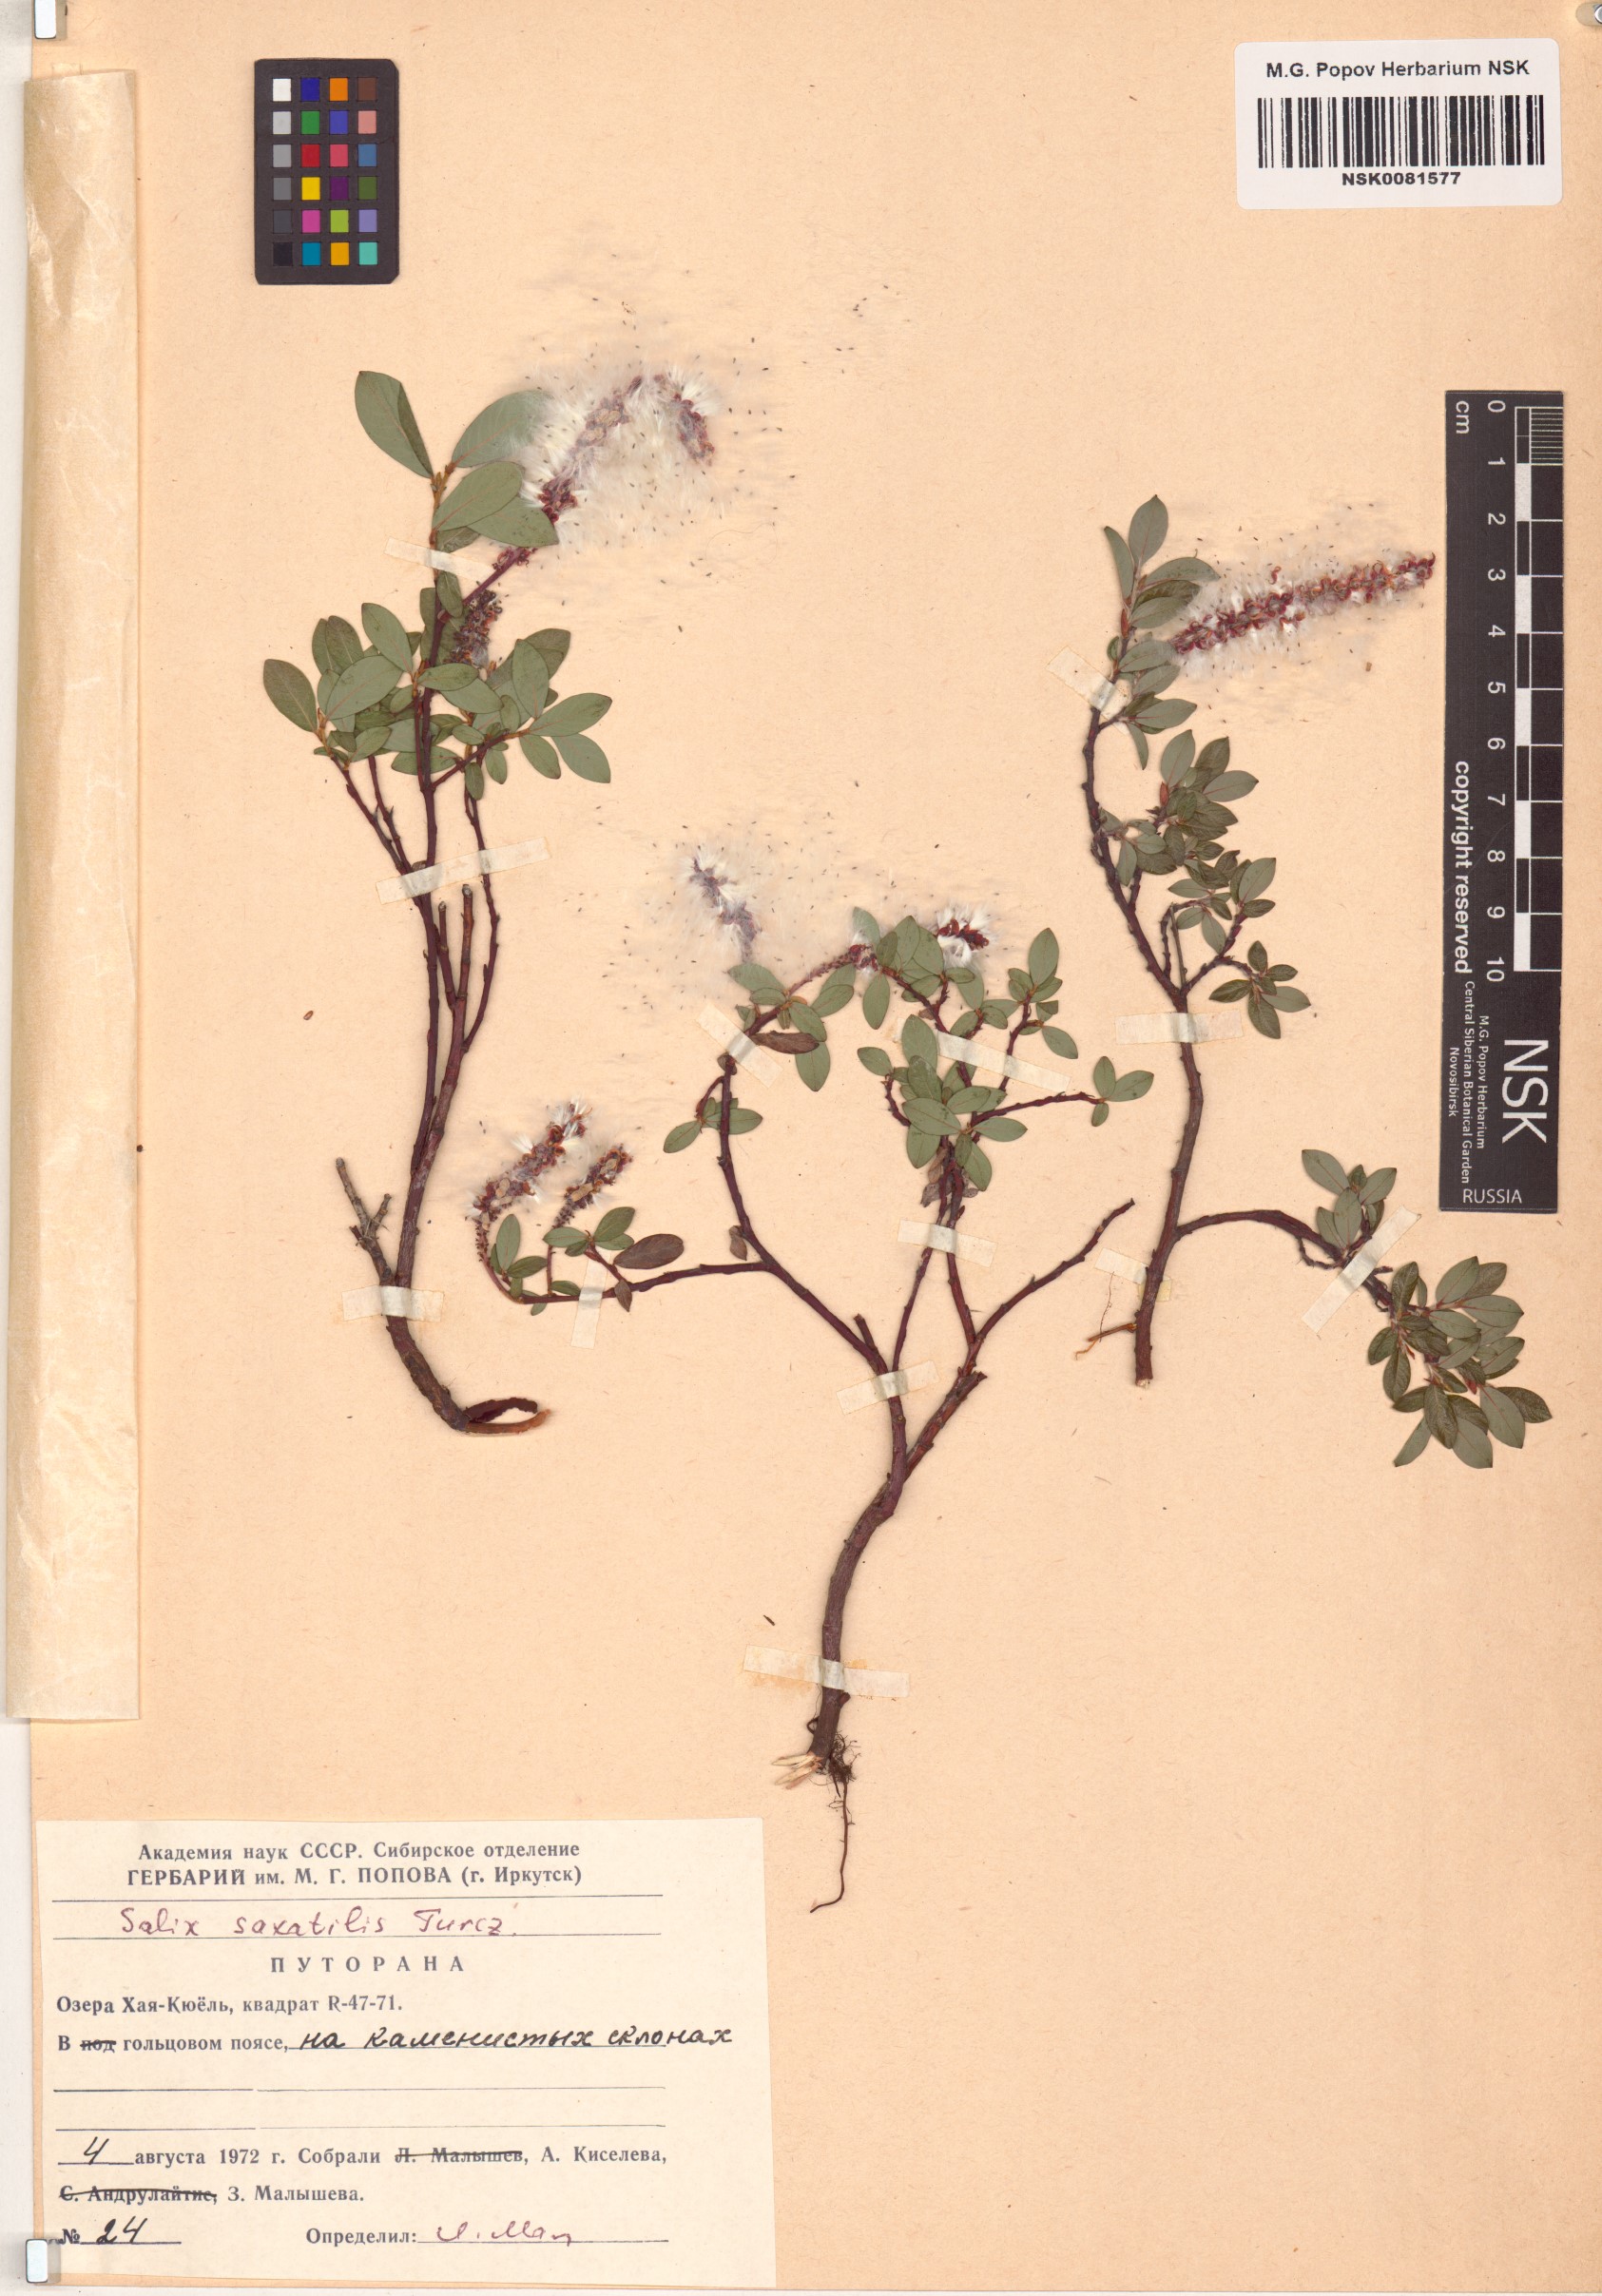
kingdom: Plantae
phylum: Tracheophyta
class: Magnoliopsida
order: Malpighiales
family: Salicaceae
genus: Salix
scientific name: Salix saxatilis
